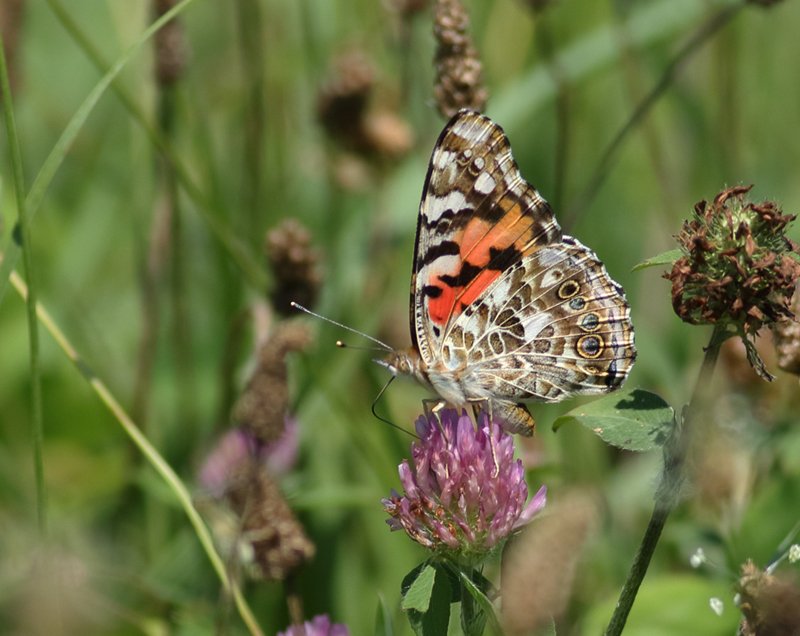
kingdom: Animalia
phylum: Arthropoda
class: Insecta
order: Lepidoptera
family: Nymphalidae
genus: Vanessa
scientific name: Vanessa cardui
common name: Painted Lady
